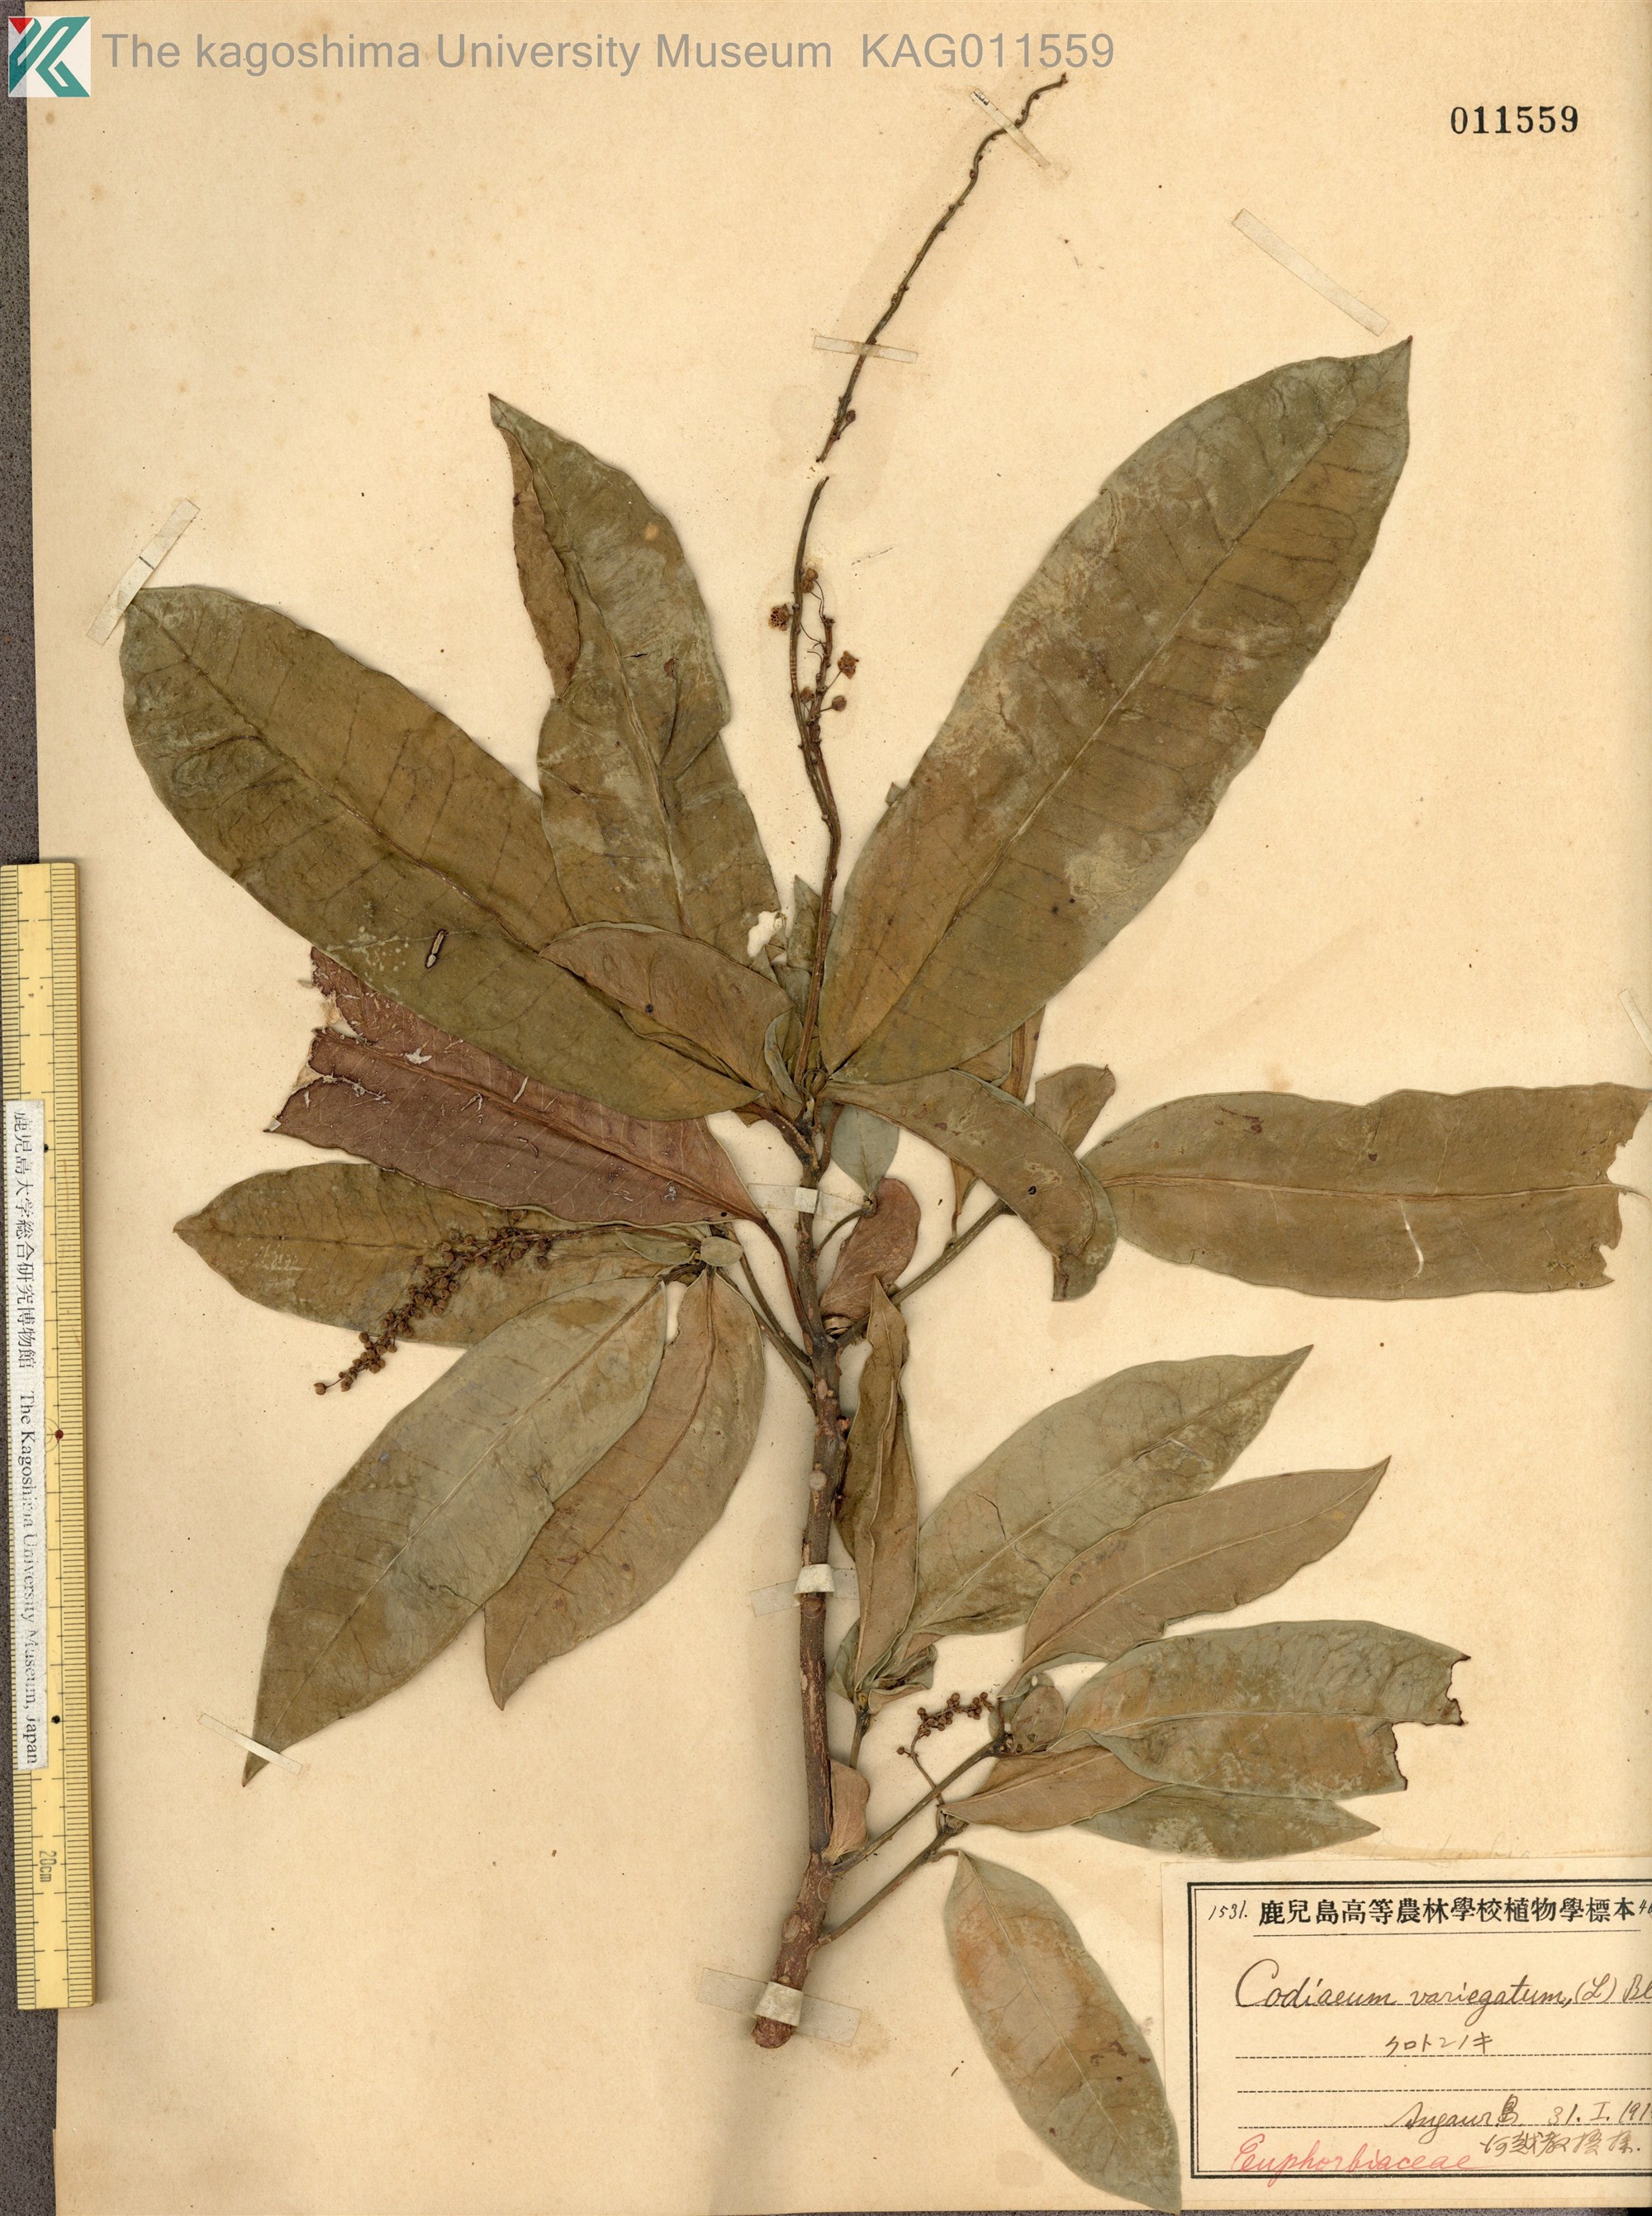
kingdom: Plantae
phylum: Tracheophyta
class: Magnoliopsida
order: Malpighiales
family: Euphorbiaceae
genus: Codiaeum
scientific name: Codiaeum variegatum
